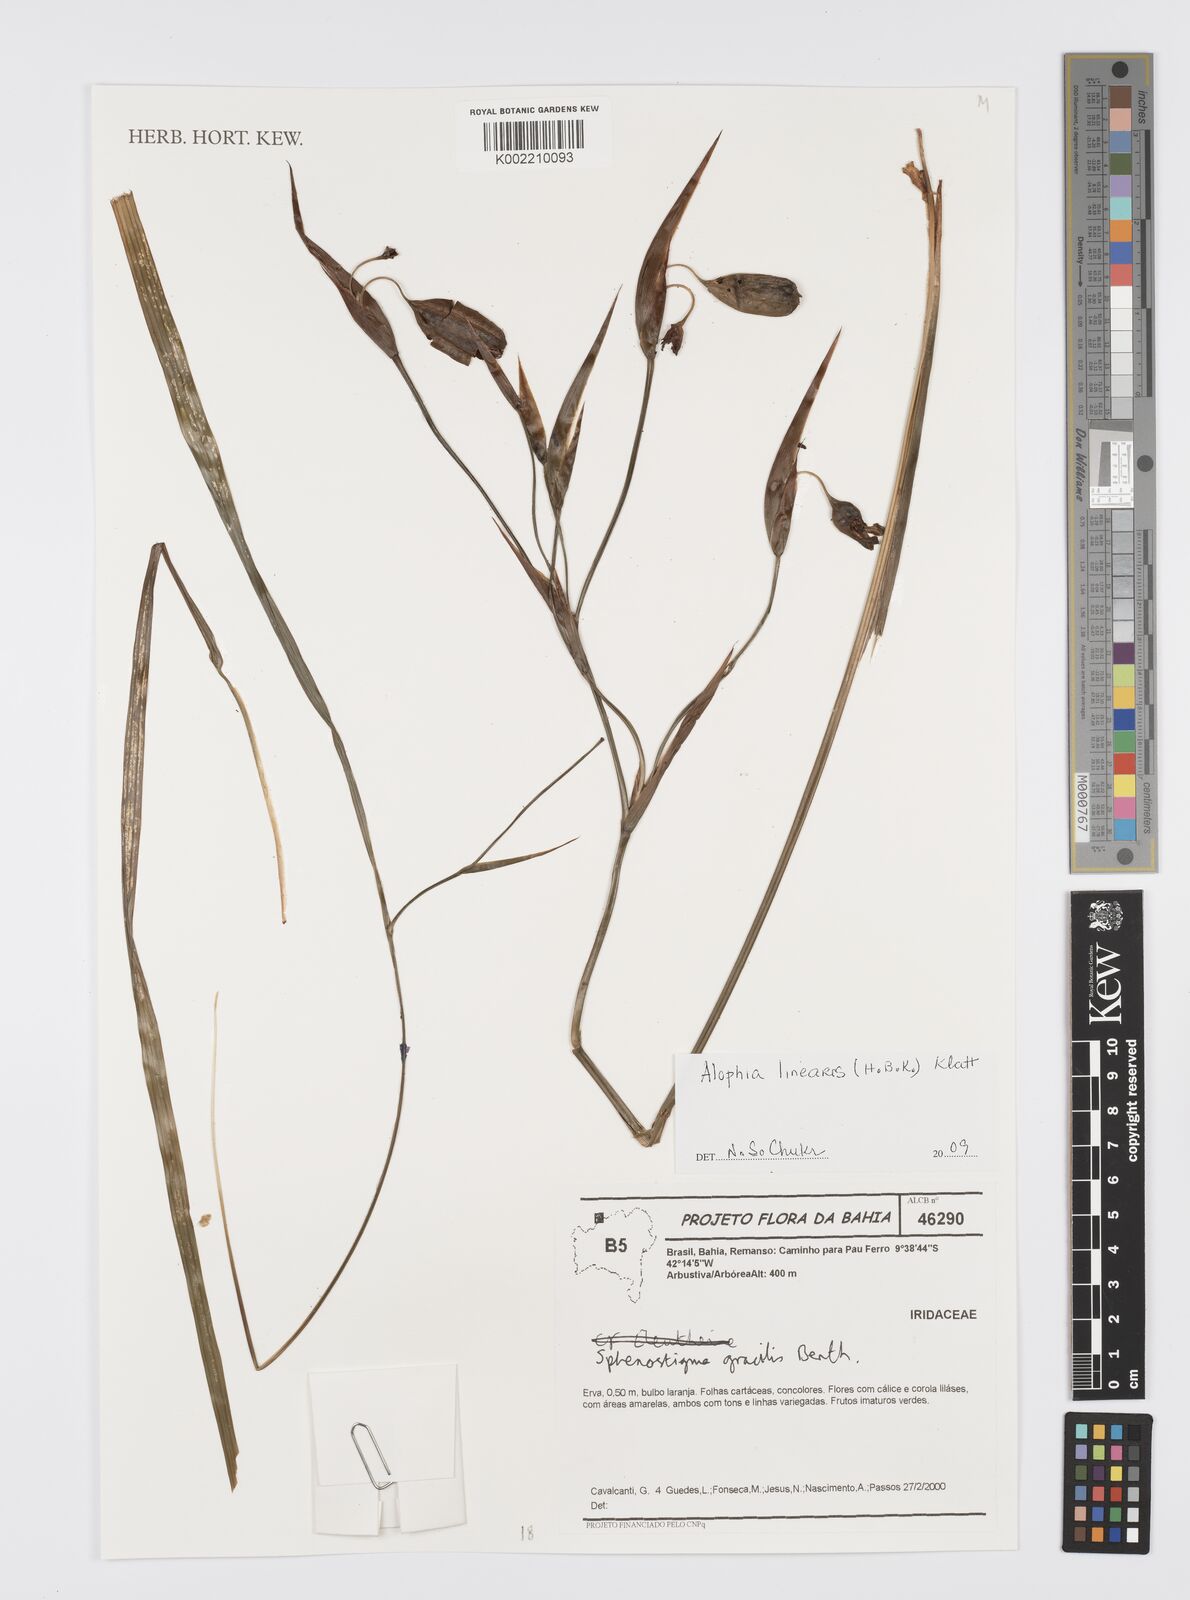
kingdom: Plantae
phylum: Tracheophyta
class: Liliopsida
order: Asparagales
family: Iridaceae
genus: Larentia
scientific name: Larentia linearis
